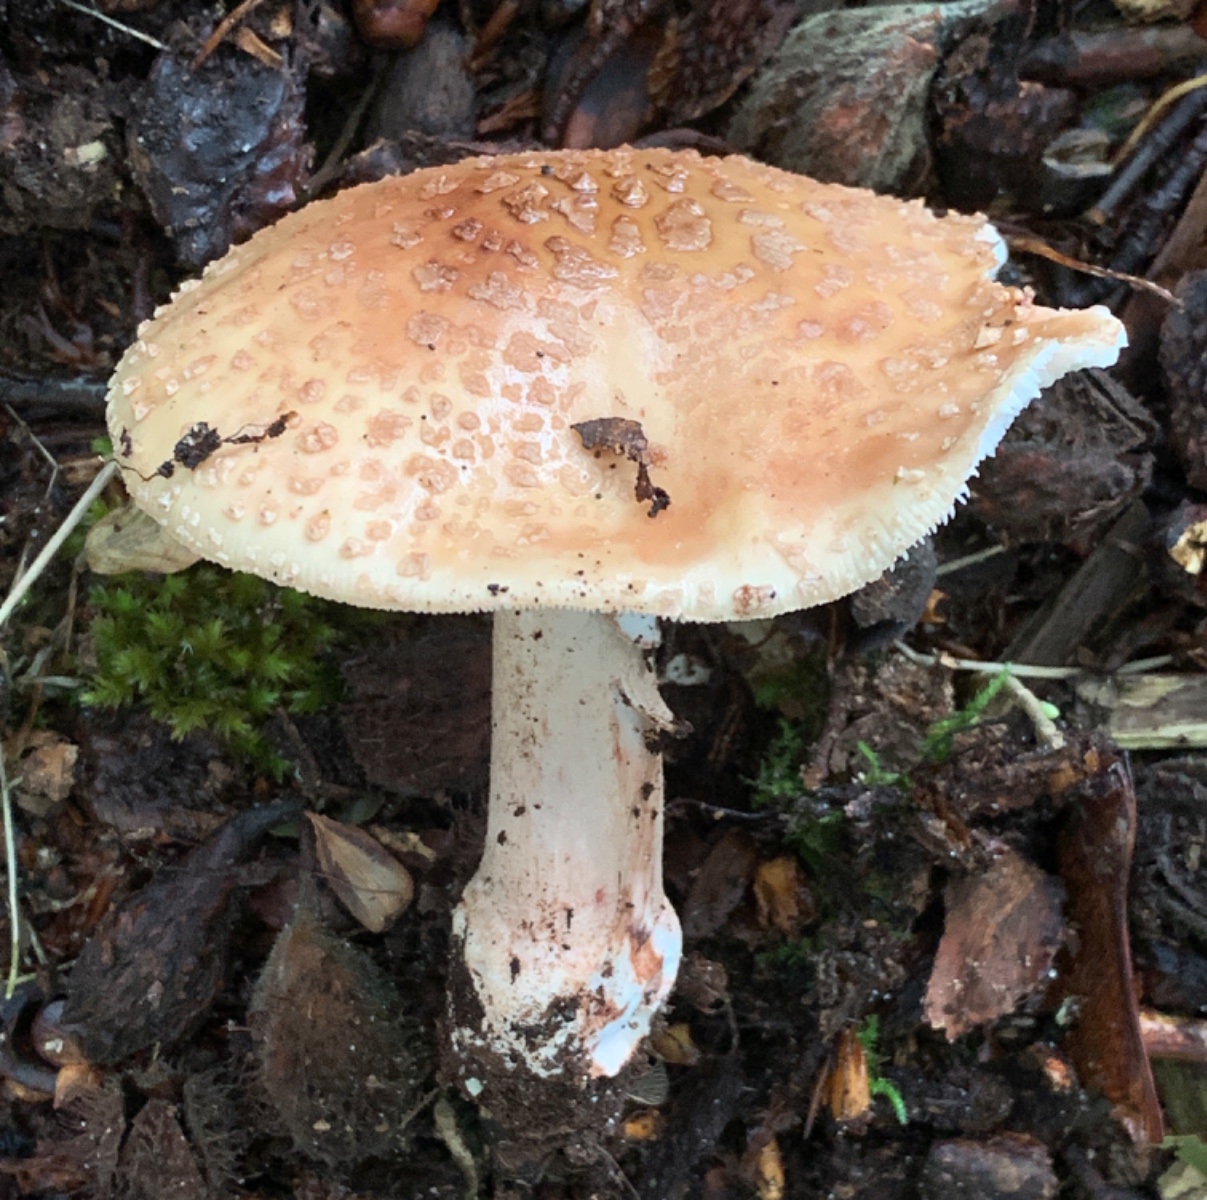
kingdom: Fungi
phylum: Basidiomycota
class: Agaricomycetes
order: Agaricales
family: Amanitaceae
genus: Amanita
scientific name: Amanita rubescens
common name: rødmende fluesvamp
